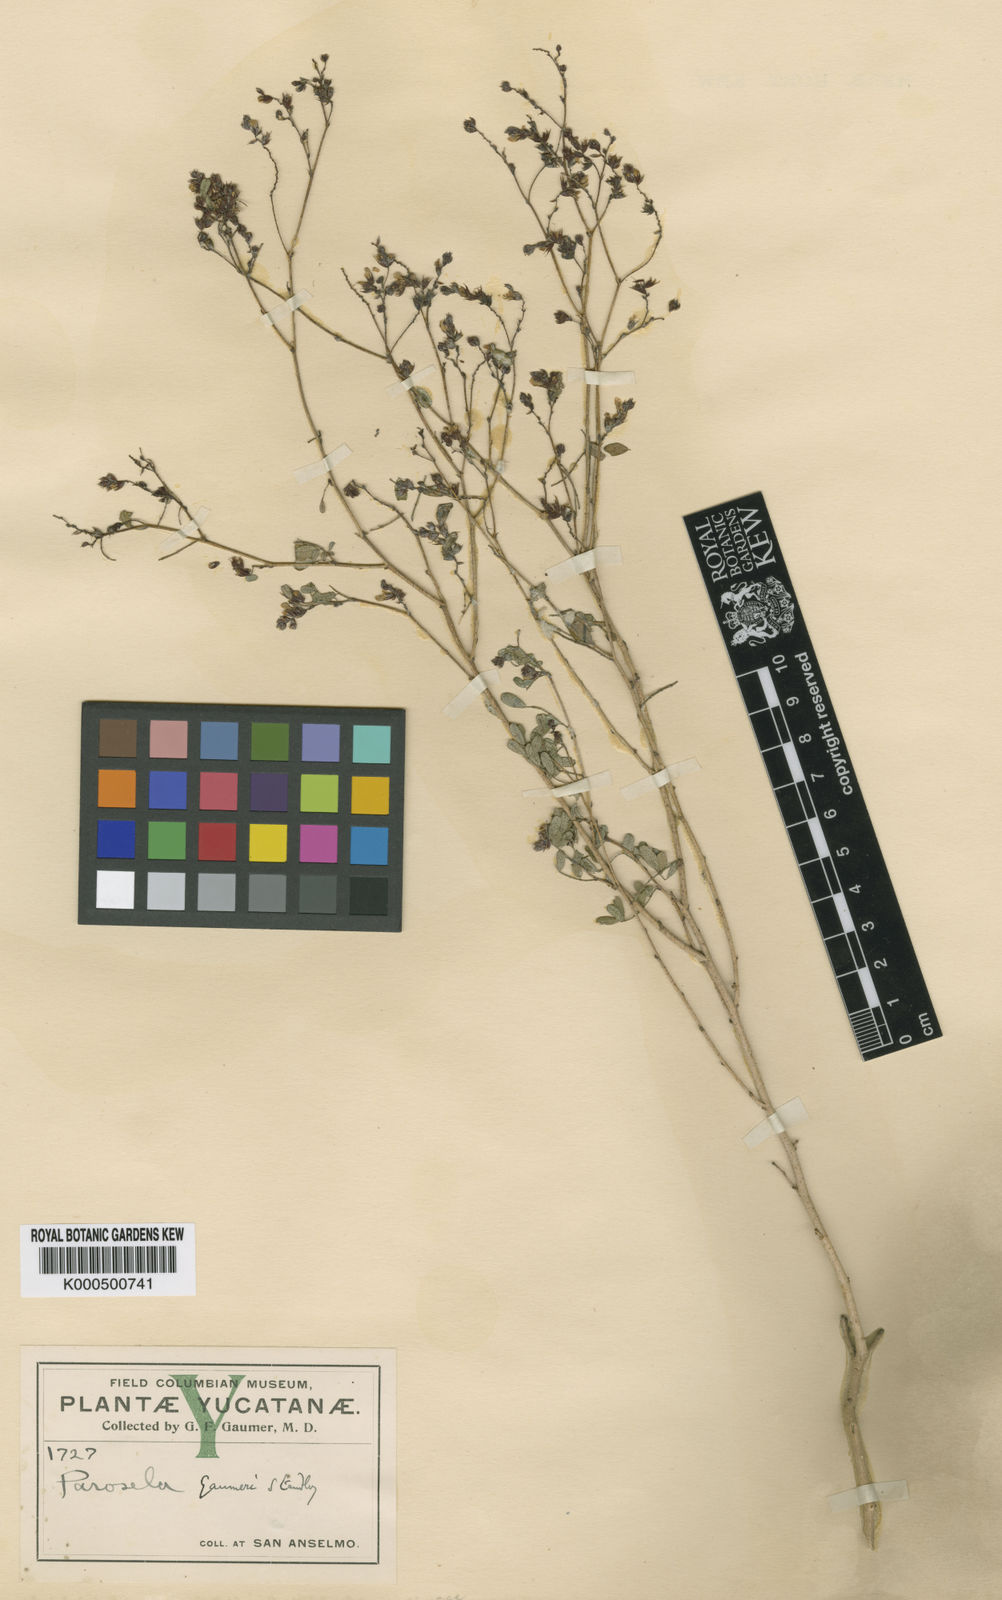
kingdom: Plantae
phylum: Tracheophyta
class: Magnoliopsida
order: Fabales
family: Fabaceae
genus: Dalea
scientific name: Dalea scandens
